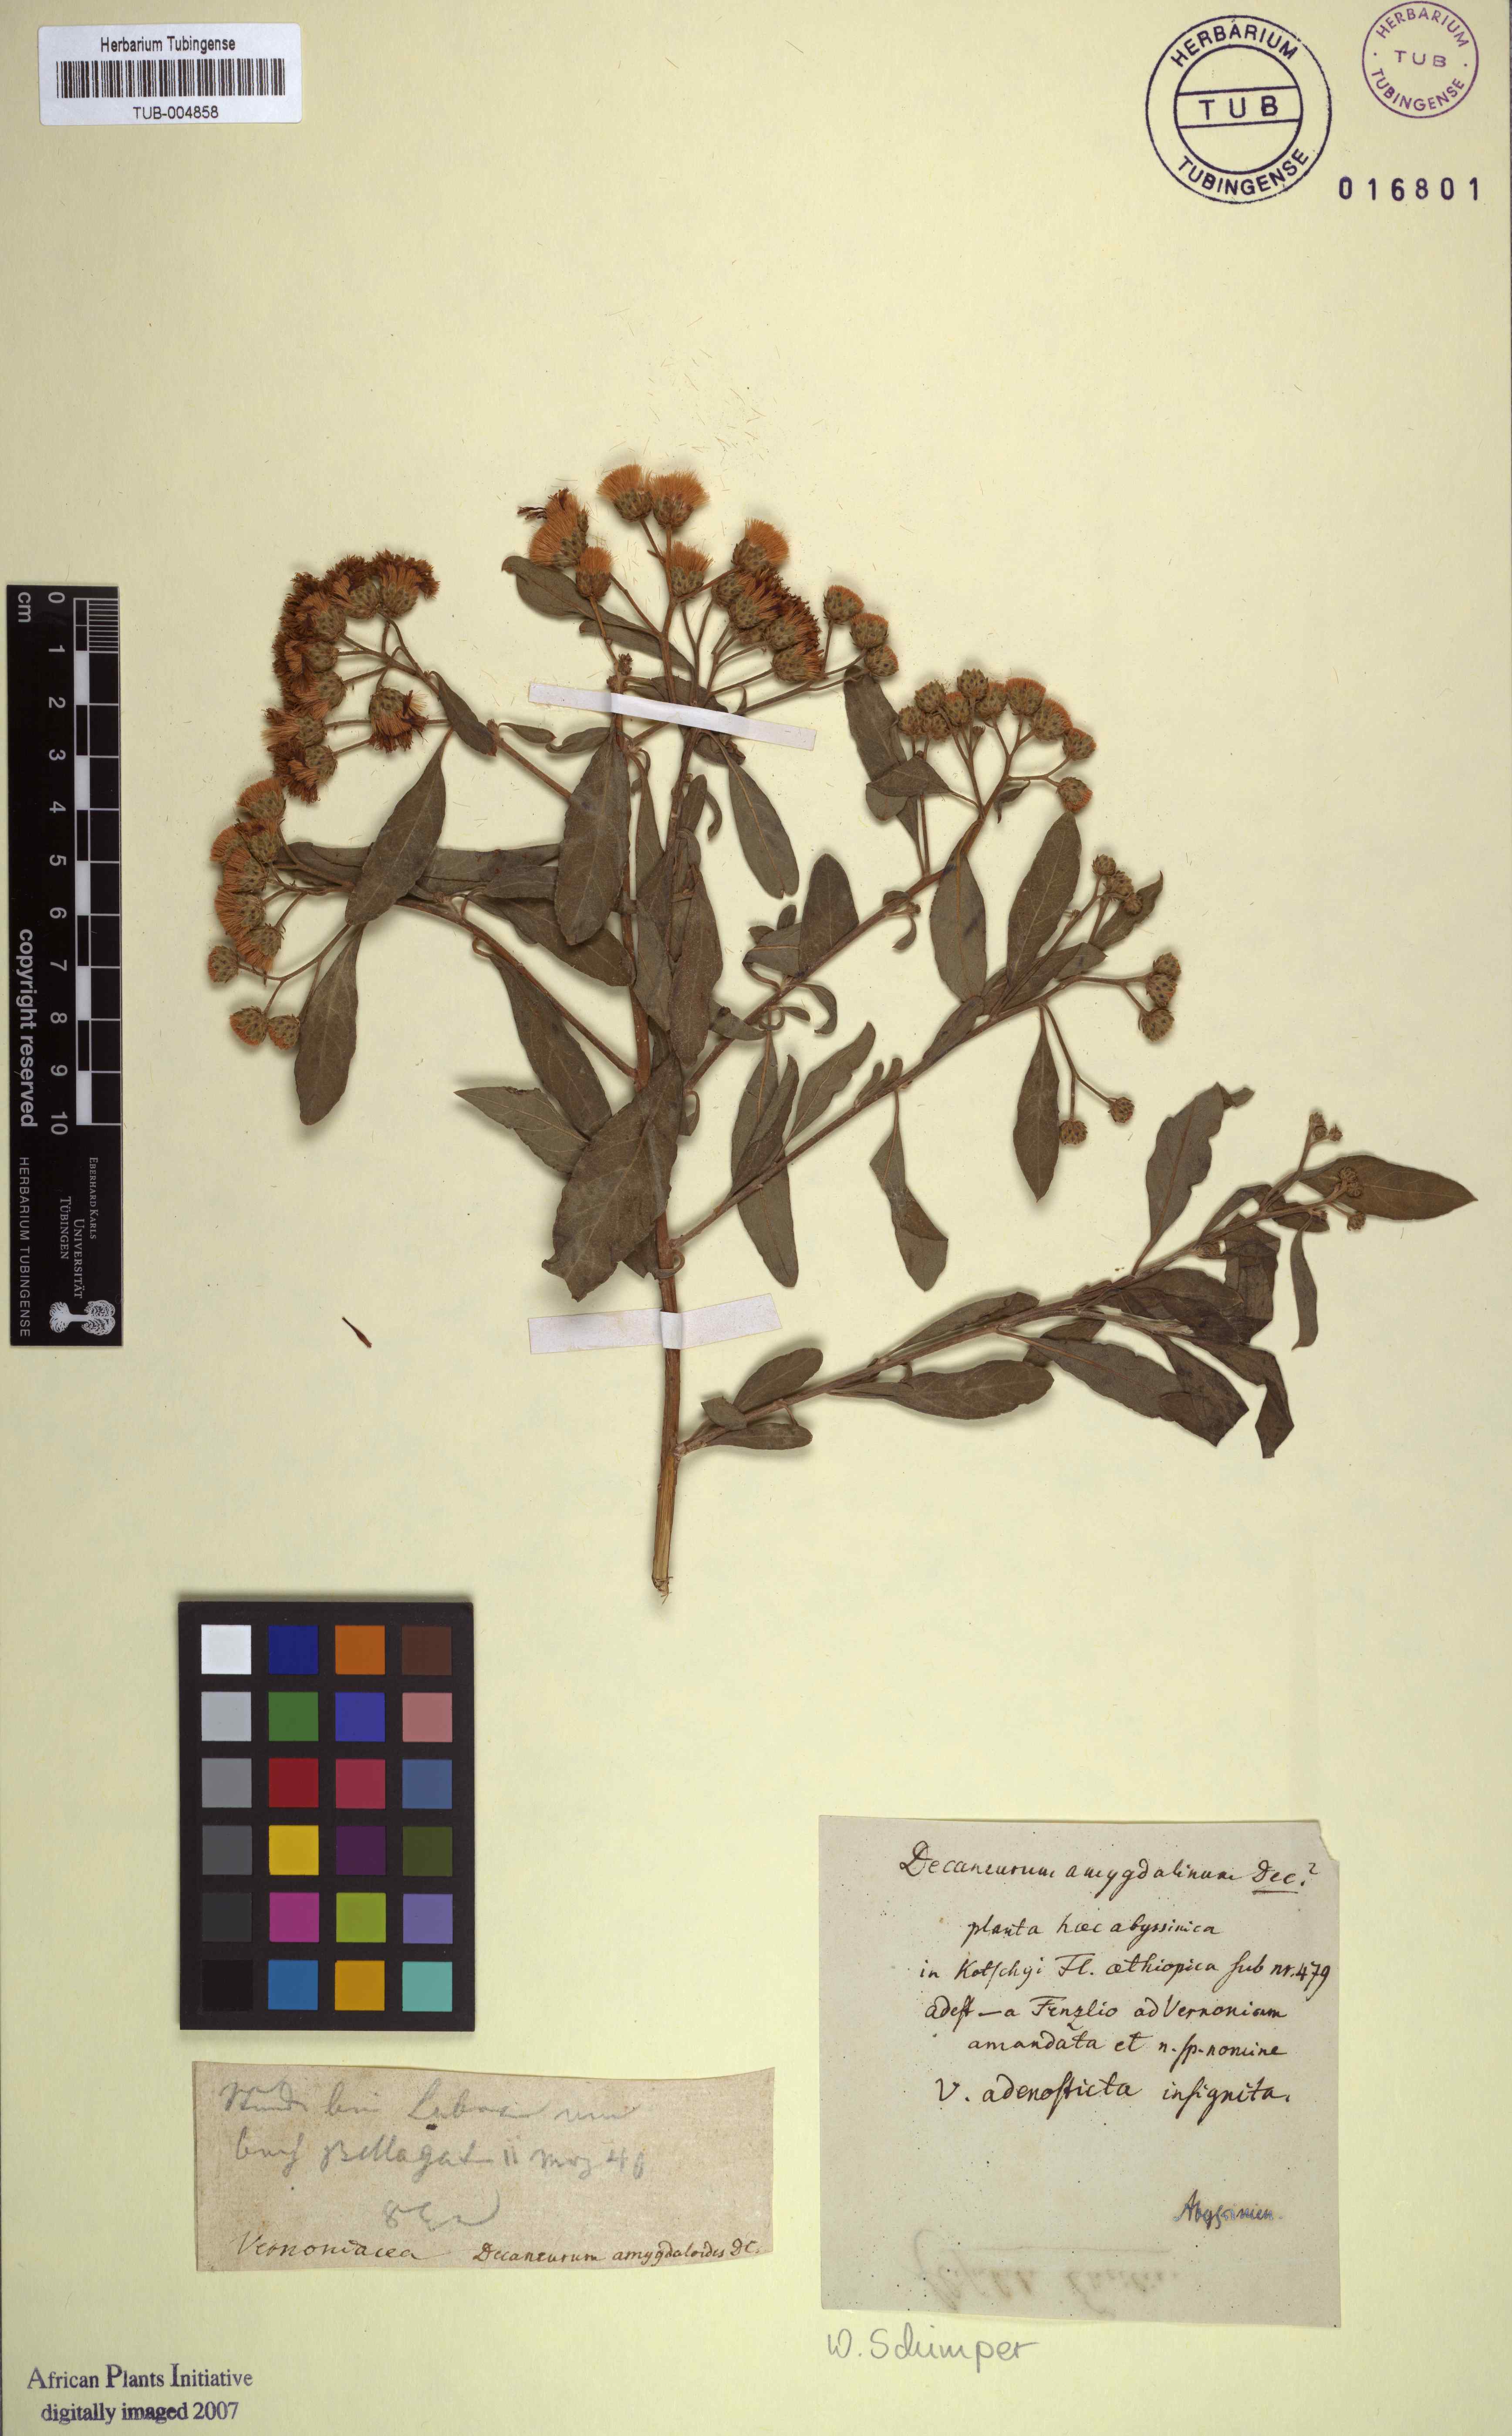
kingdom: Plantae
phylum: Tracheophyta
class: Magnoliopsida
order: Asterales
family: Asteraceae
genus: Gymnanthemum
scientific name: Gymnanthemum amygdalinum
